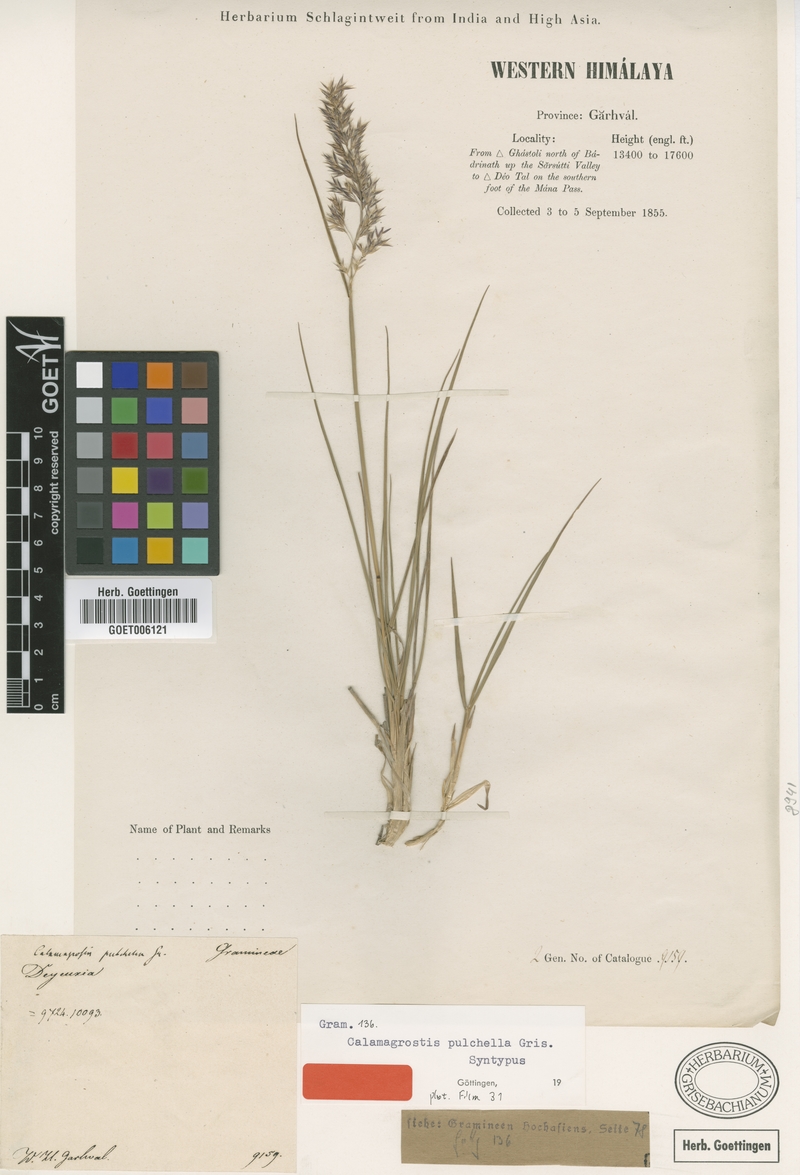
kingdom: Plantae
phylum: Tracheophyta
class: Liliopsida
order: Poales
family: Poaceae
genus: Calamagrostis
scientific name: Calamagrostis lahulensis
